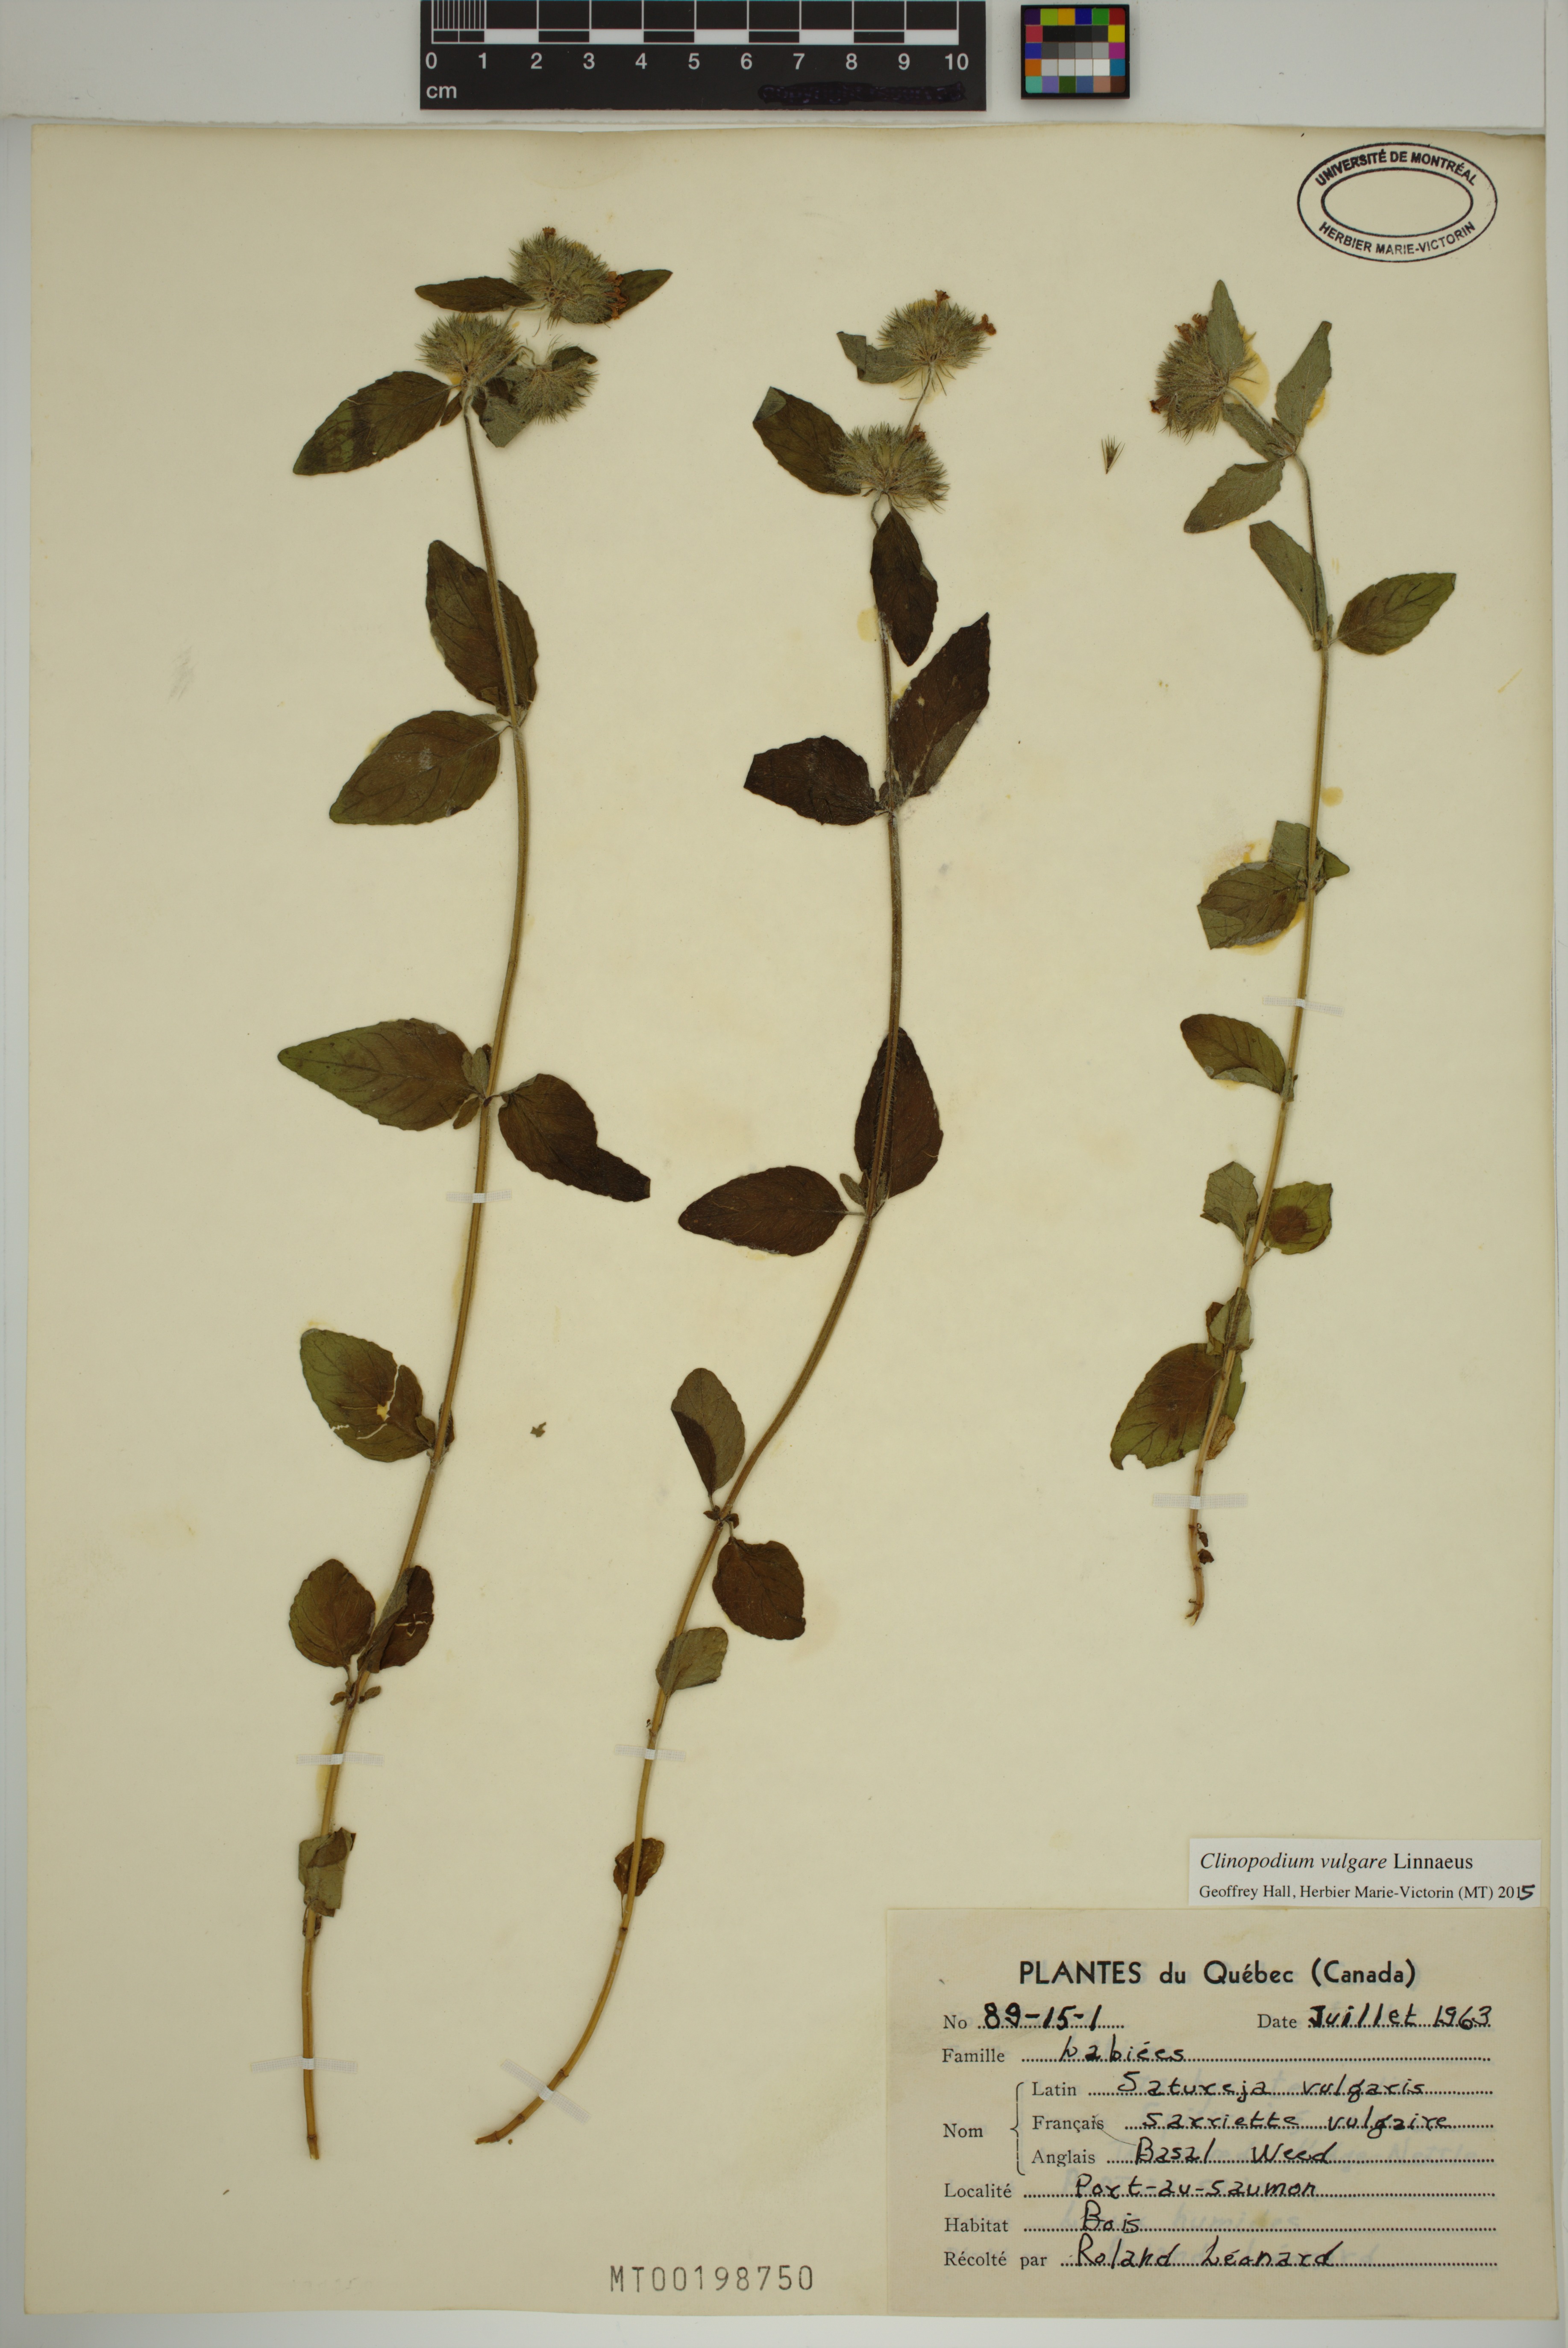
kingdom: Plantae
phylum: Tracheophyta
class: Magnoliopsida
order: Lamiales
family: Lamiaceae
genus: Clinopodium
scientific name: Clinopodium vulgare
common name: Wild basil
